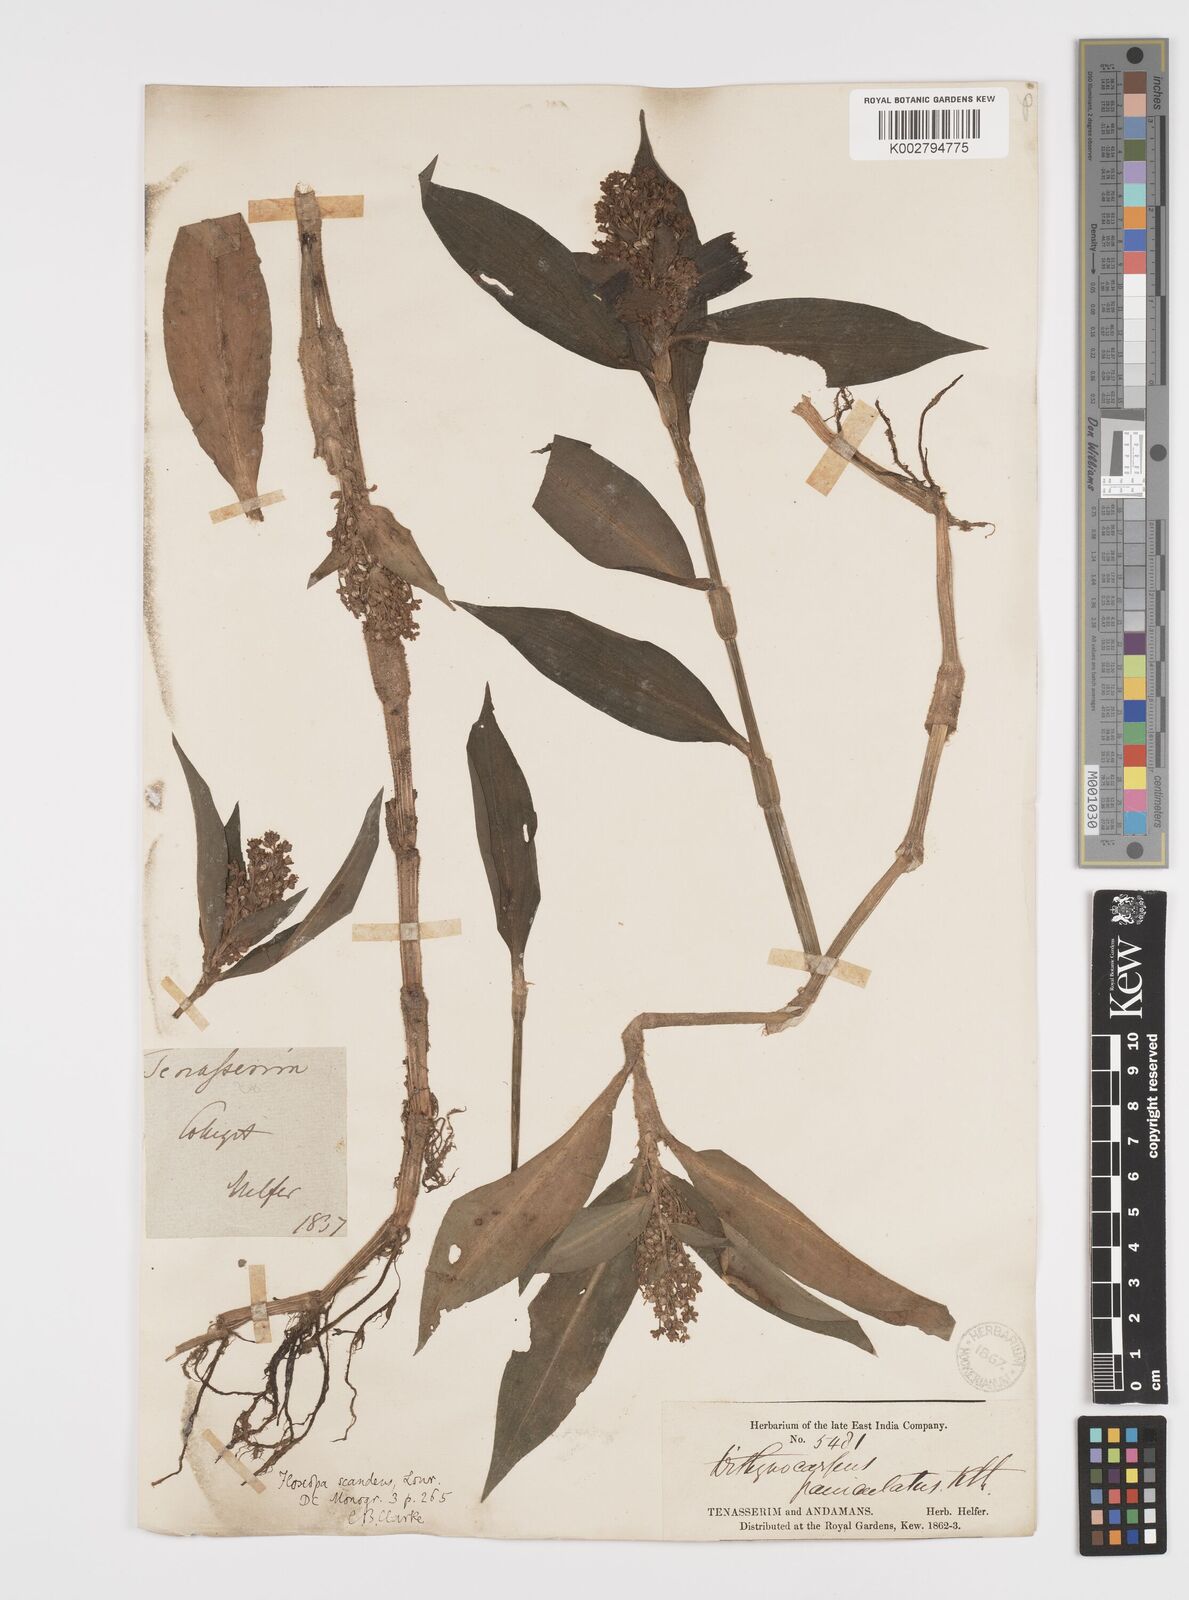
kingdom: Plantae
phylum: Tracheophyta
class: Liliopsida
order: Commelinales
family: Commelinaceae
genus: Floscopa
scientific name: Floscopa scandens
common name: Climbing flower cup
